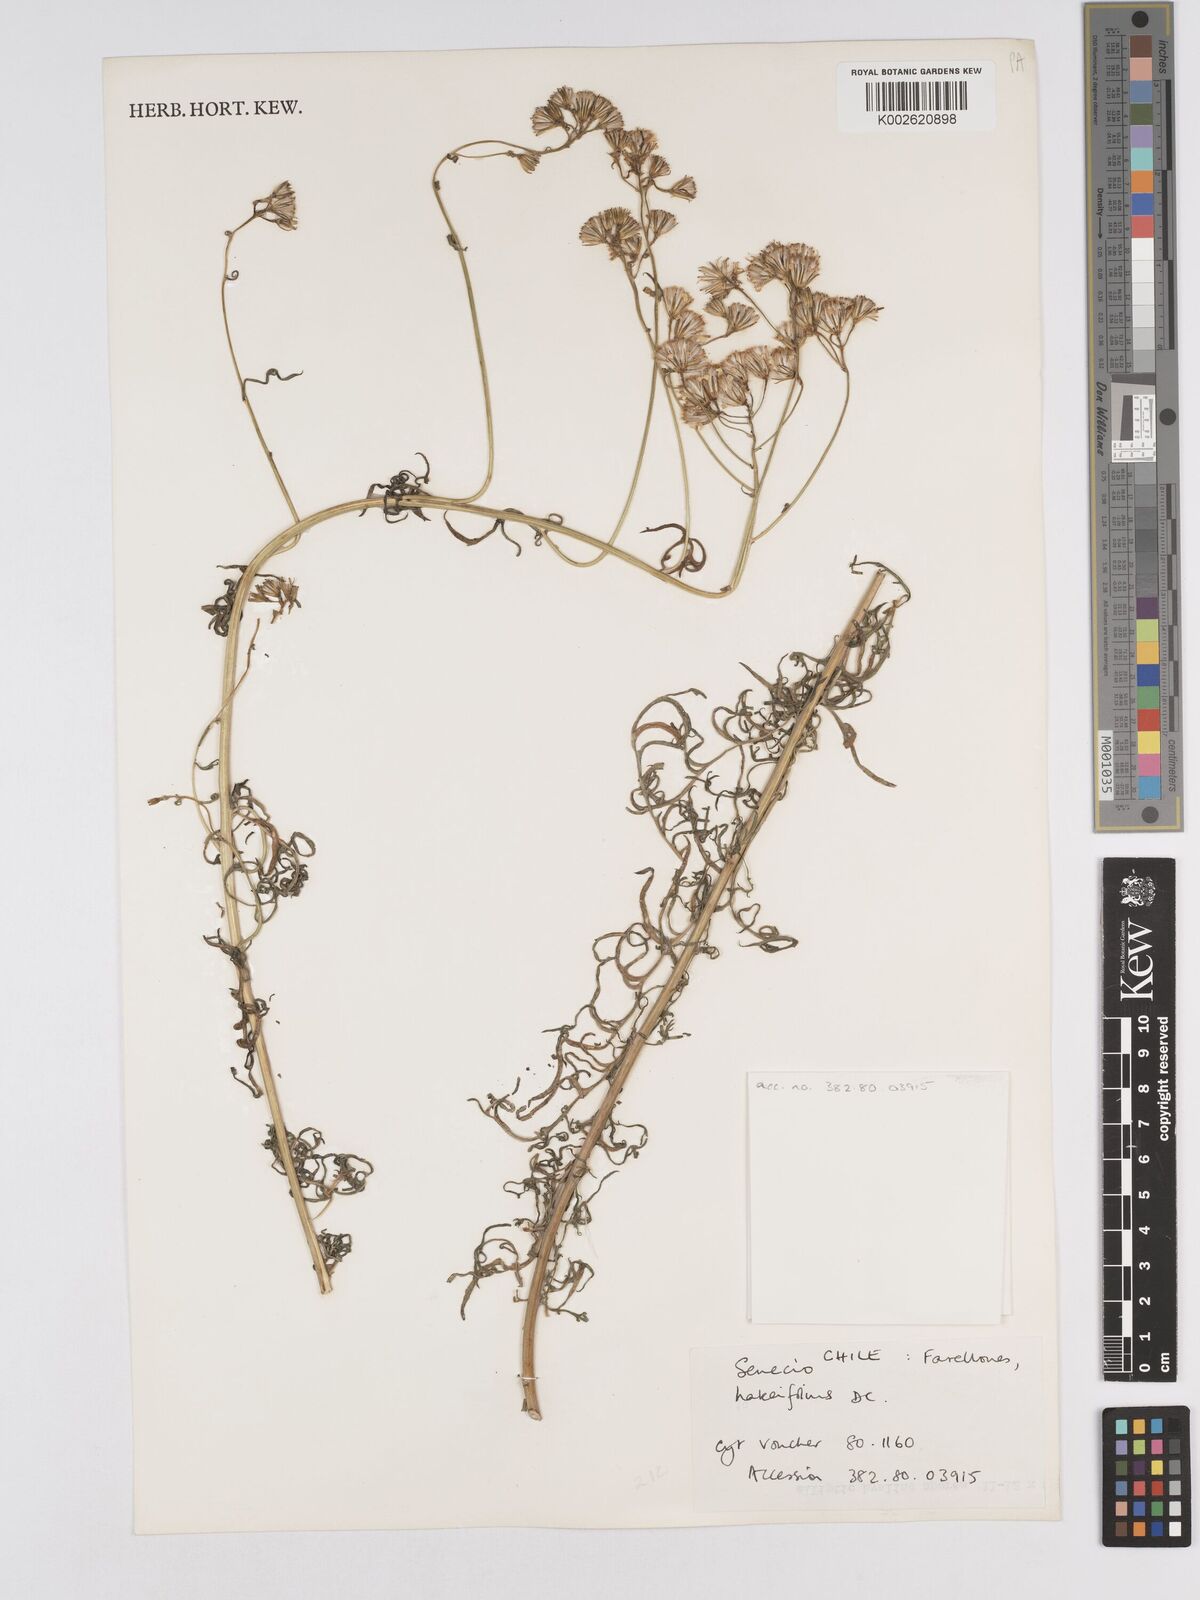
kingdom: Plantae
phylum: Tracheophyta
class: Magnoliopsida
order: Asterales
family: Asteraceae
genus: Senecio
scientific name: Senecio glaber
